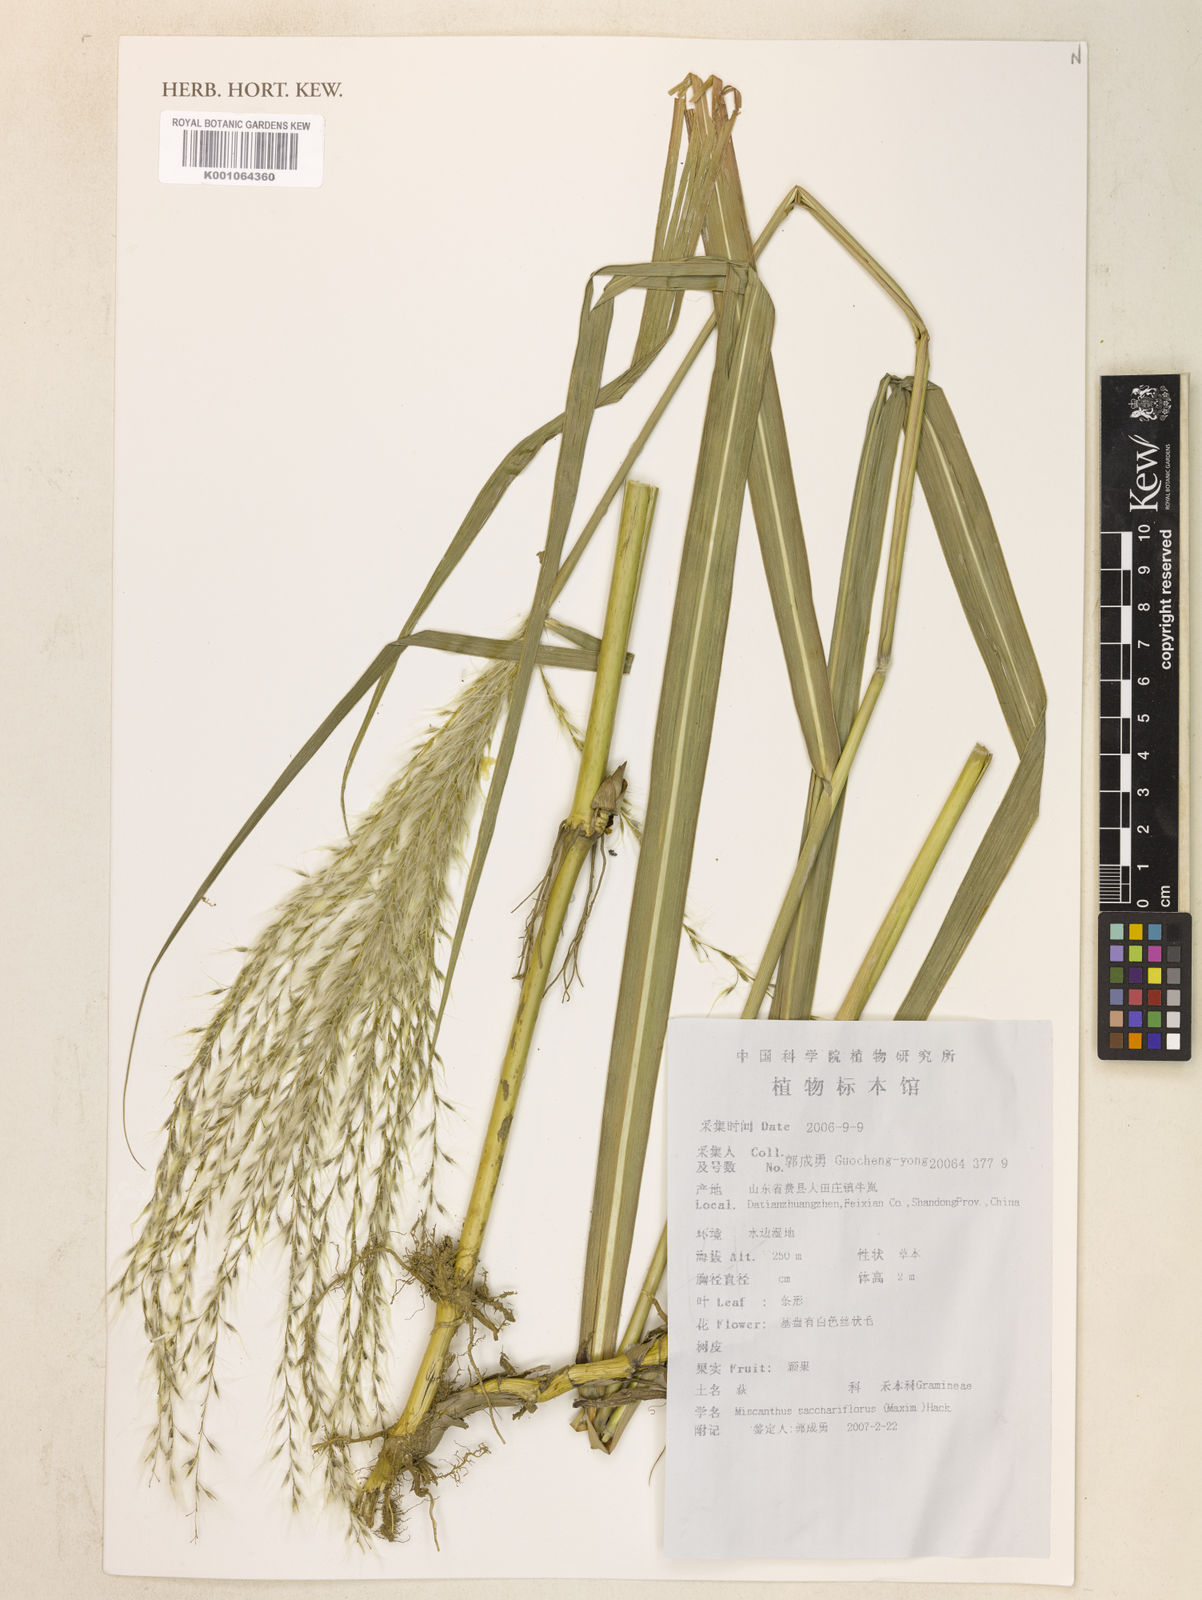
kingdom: Plantae
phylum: Tracheophyta
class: Liliopsida
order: Poales
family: Poaceae
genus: Miscanthus
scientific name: Miscanthus
